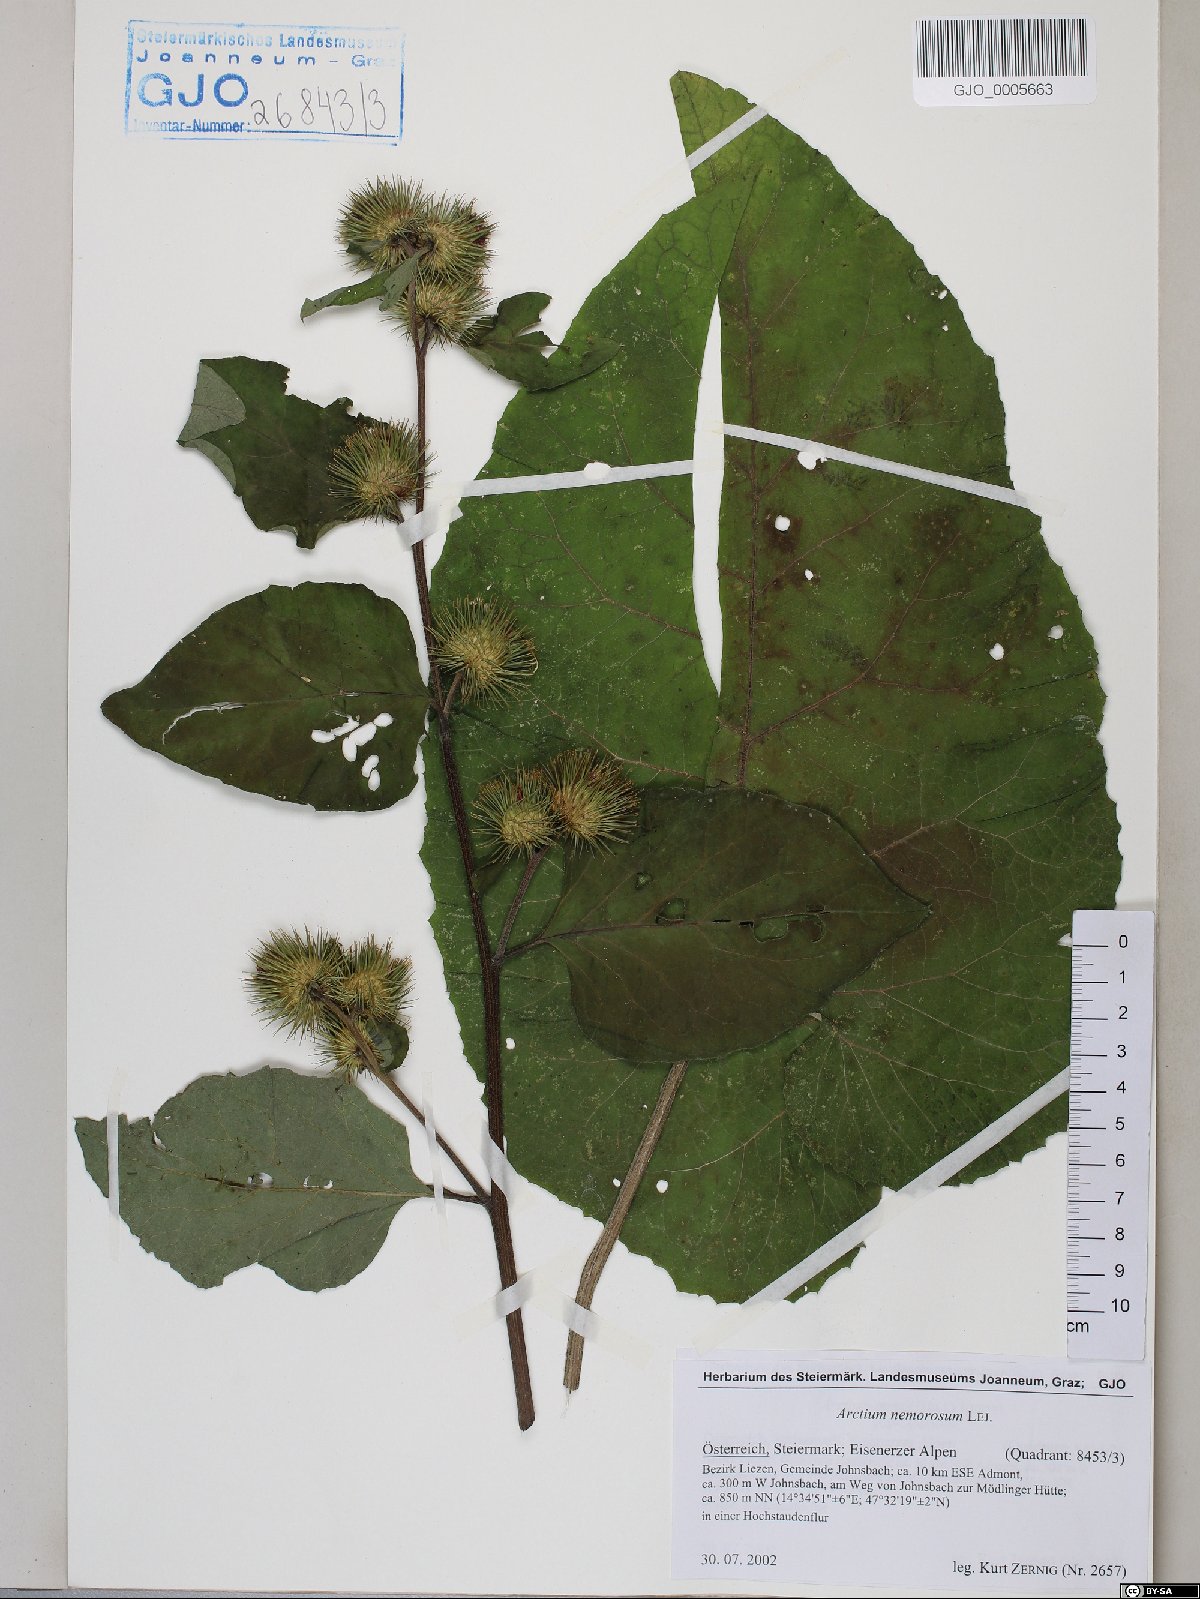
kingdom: Plantae
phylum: Tracheophyta
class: Magnoliopsida
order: Asterales
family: Asteraceae
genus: Arctium
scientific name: Arctium nemorosum
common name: Wood burdock
